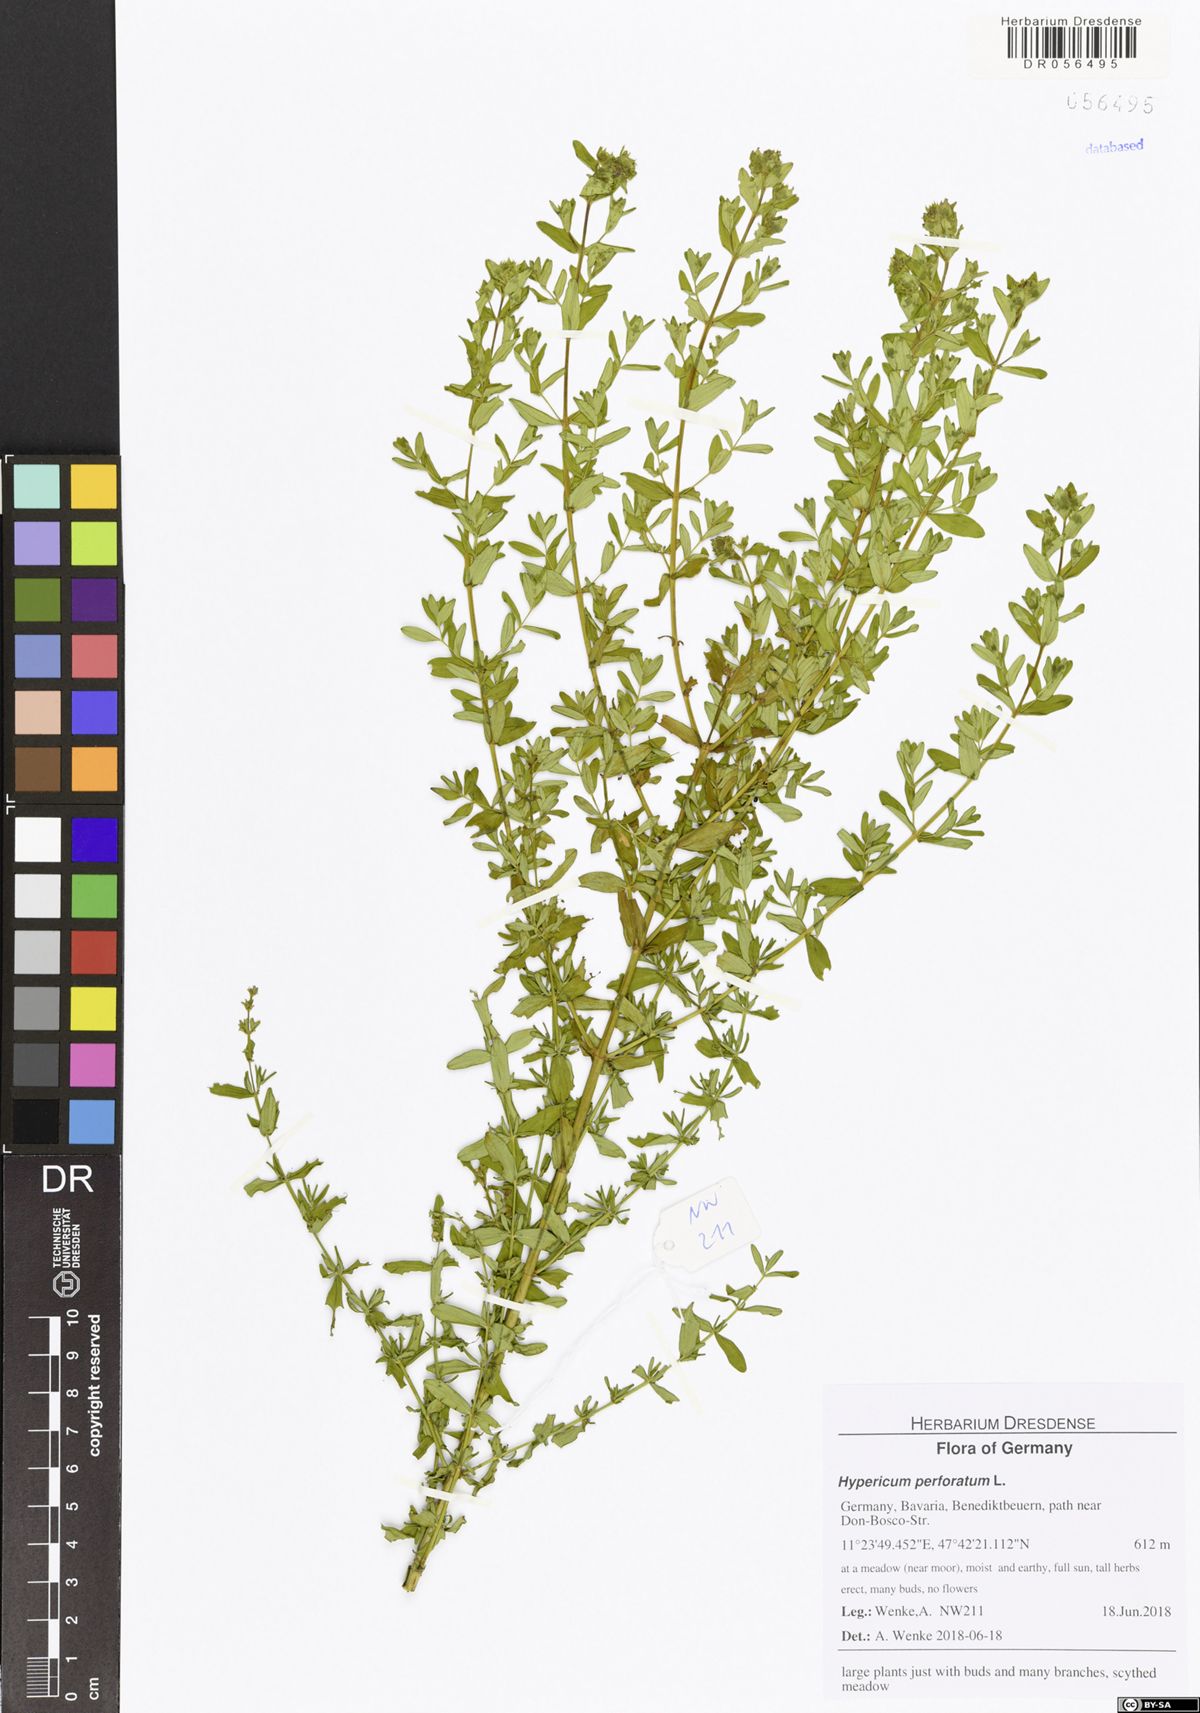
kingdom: Plantae
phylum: Tracheophyta
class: Magnoliopsida
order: Malpighiales
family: Hypericaceae
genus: Hypericum
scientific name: Hypericum perforatum
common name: Common st. johnswort
